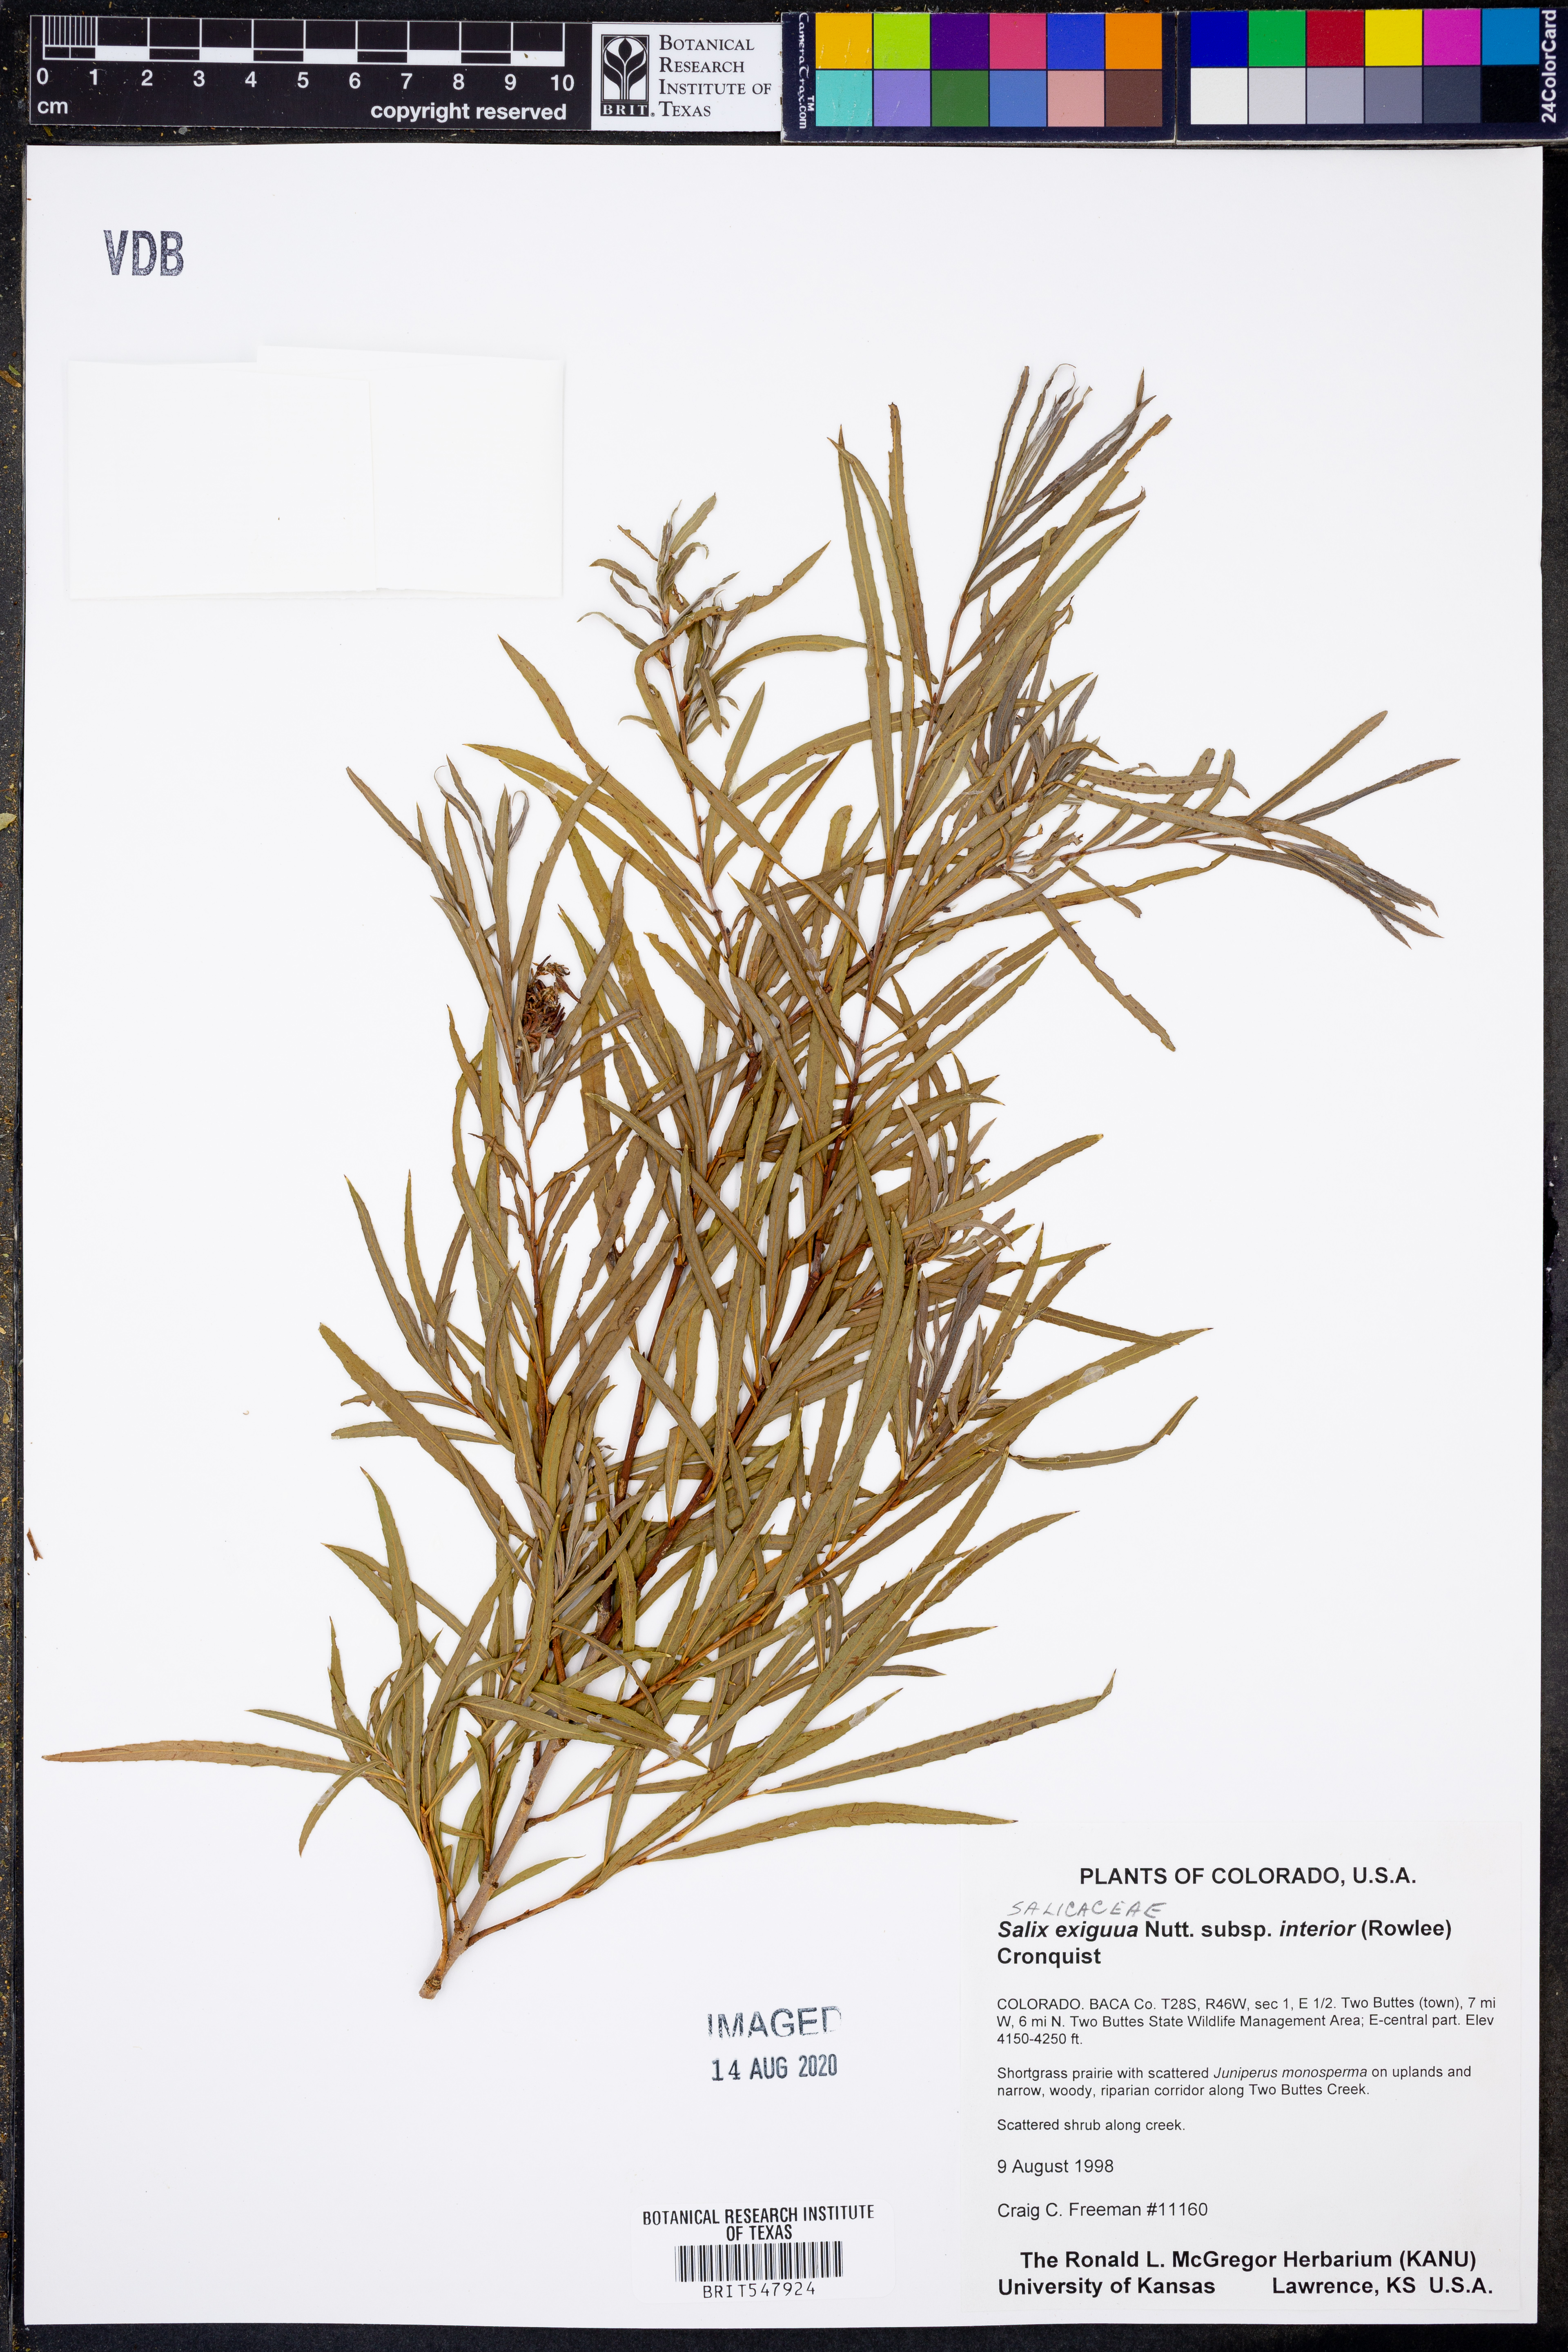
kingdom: Plantae
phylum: Tracheophyta
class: Magnoliopsida
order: Malpighiales
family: Salicaceae
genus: Salix
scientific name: Salix interior
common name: Sandbar willow
